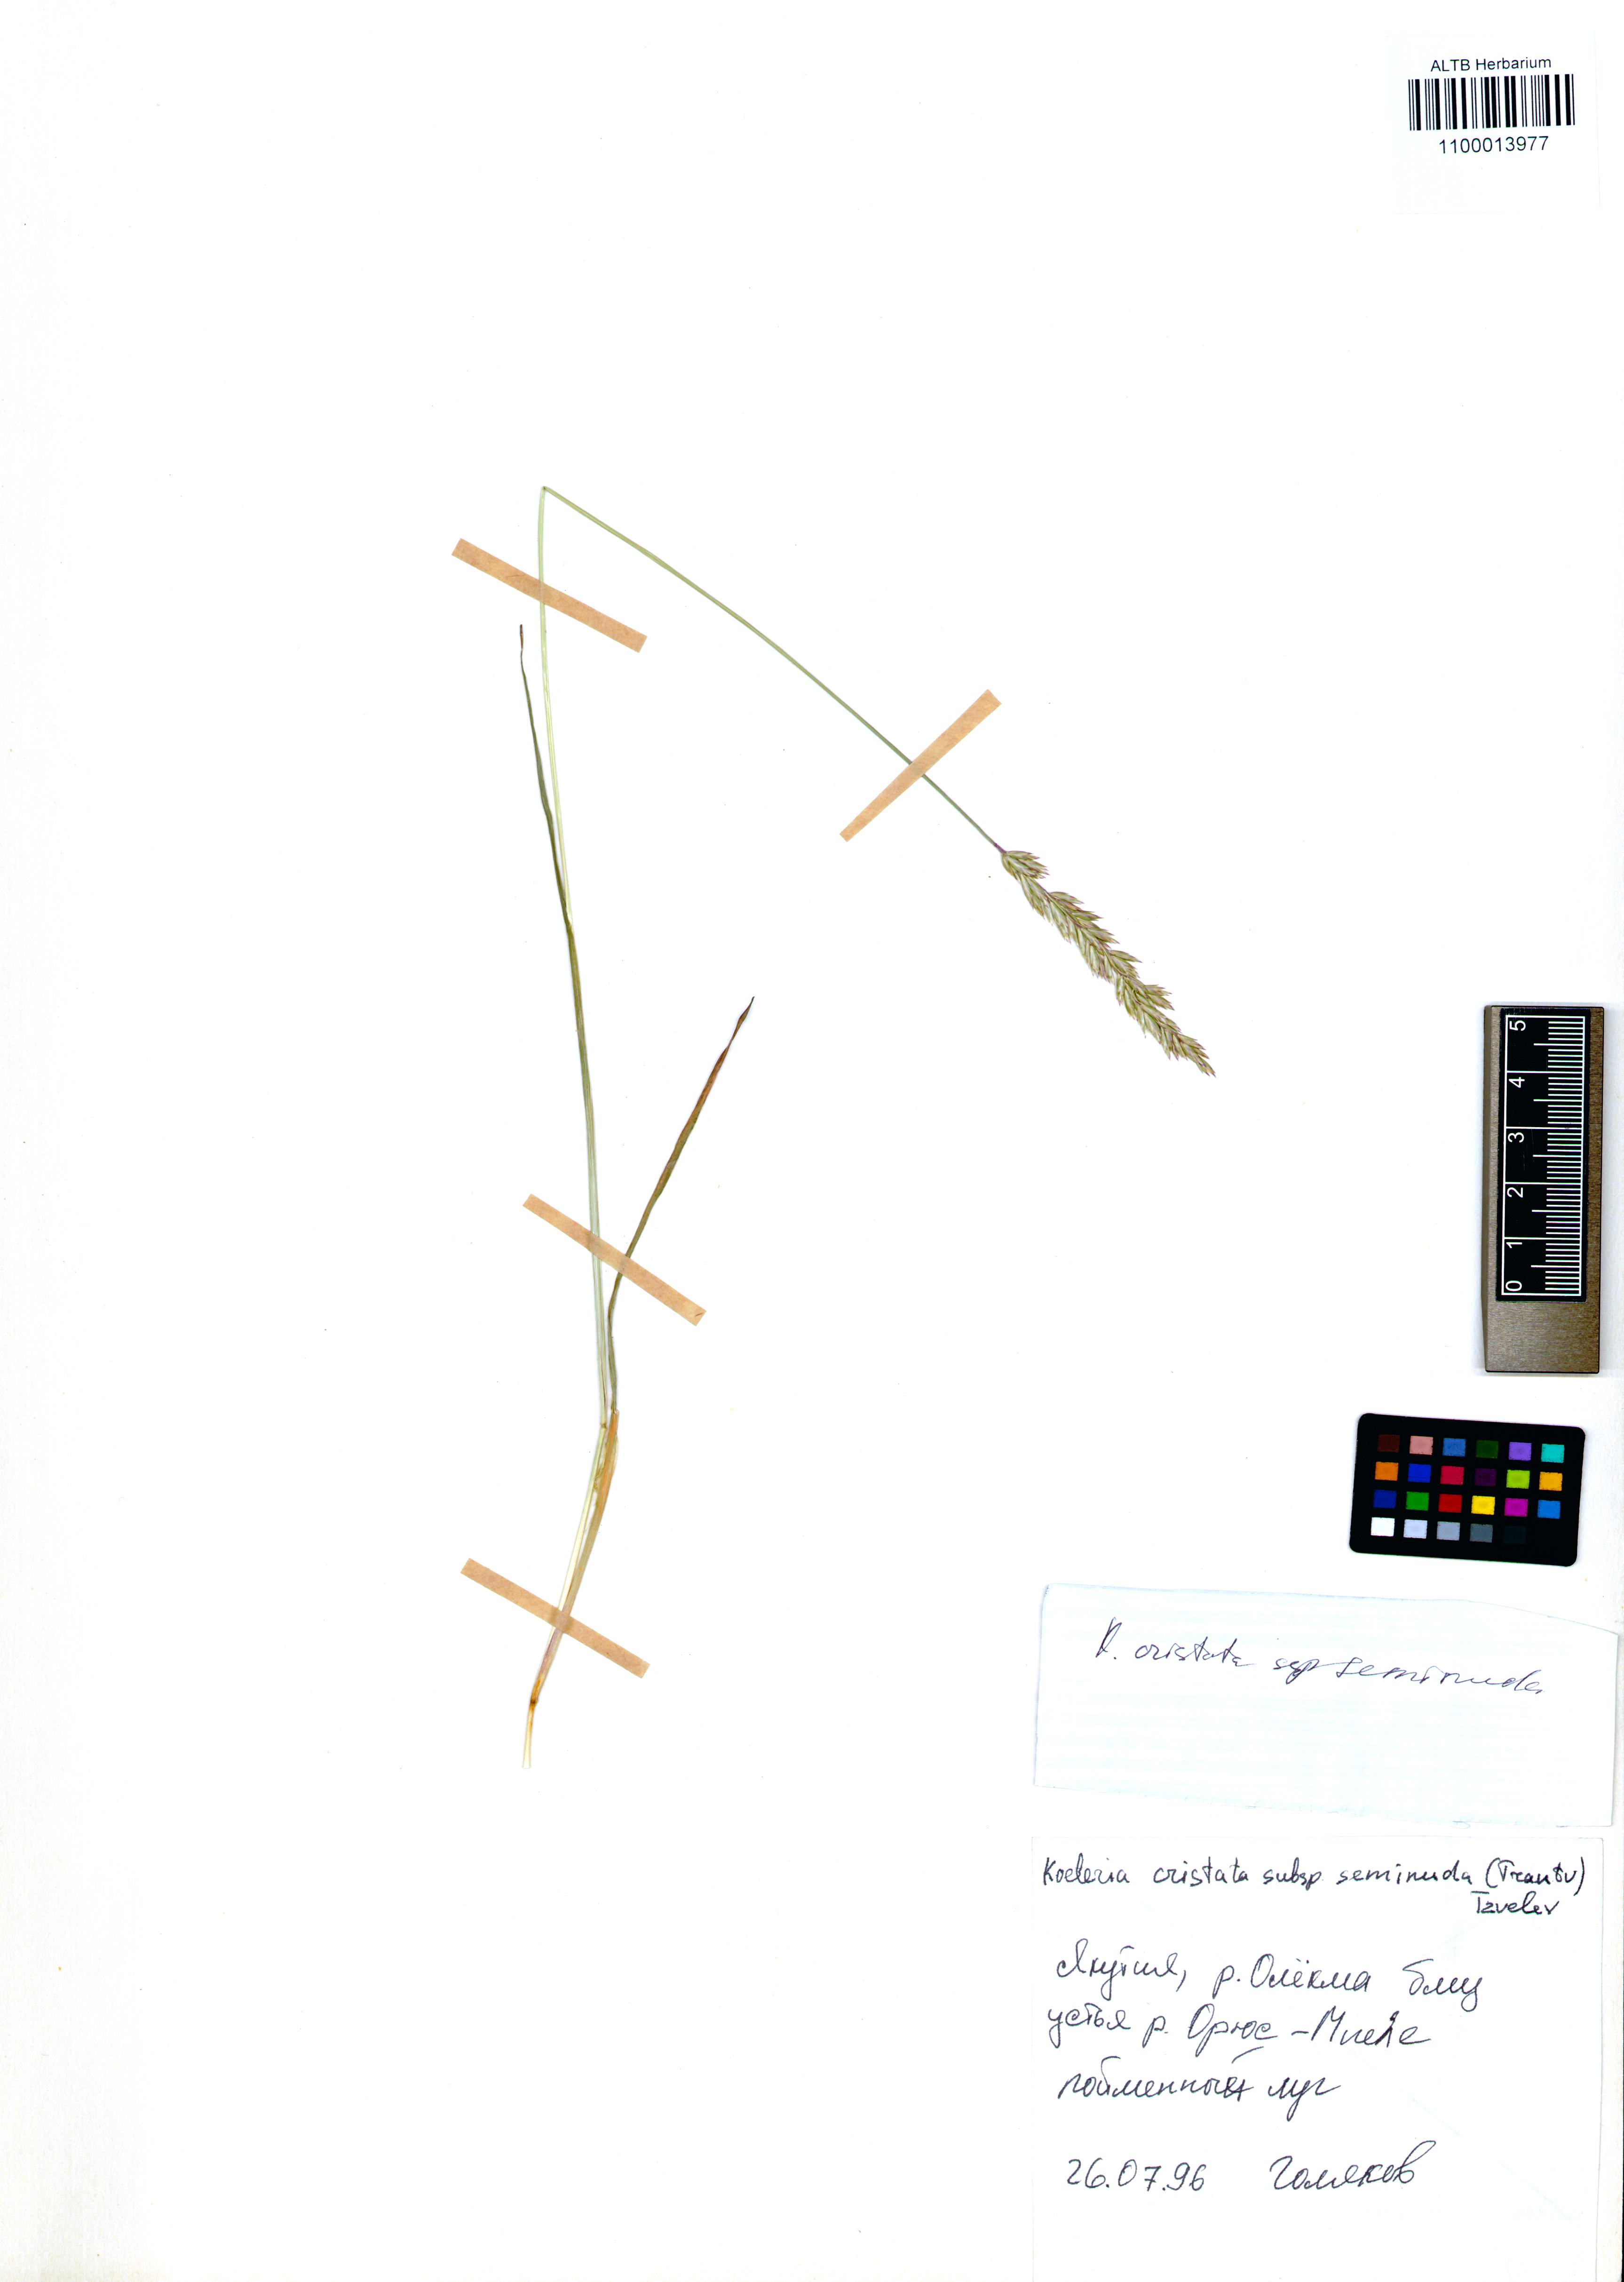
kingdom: Plantae
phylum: Tracheophyta
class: Liliopsida
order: Poales
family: Poaceae
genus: Koeleria
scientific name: Koeleria pyramidata
